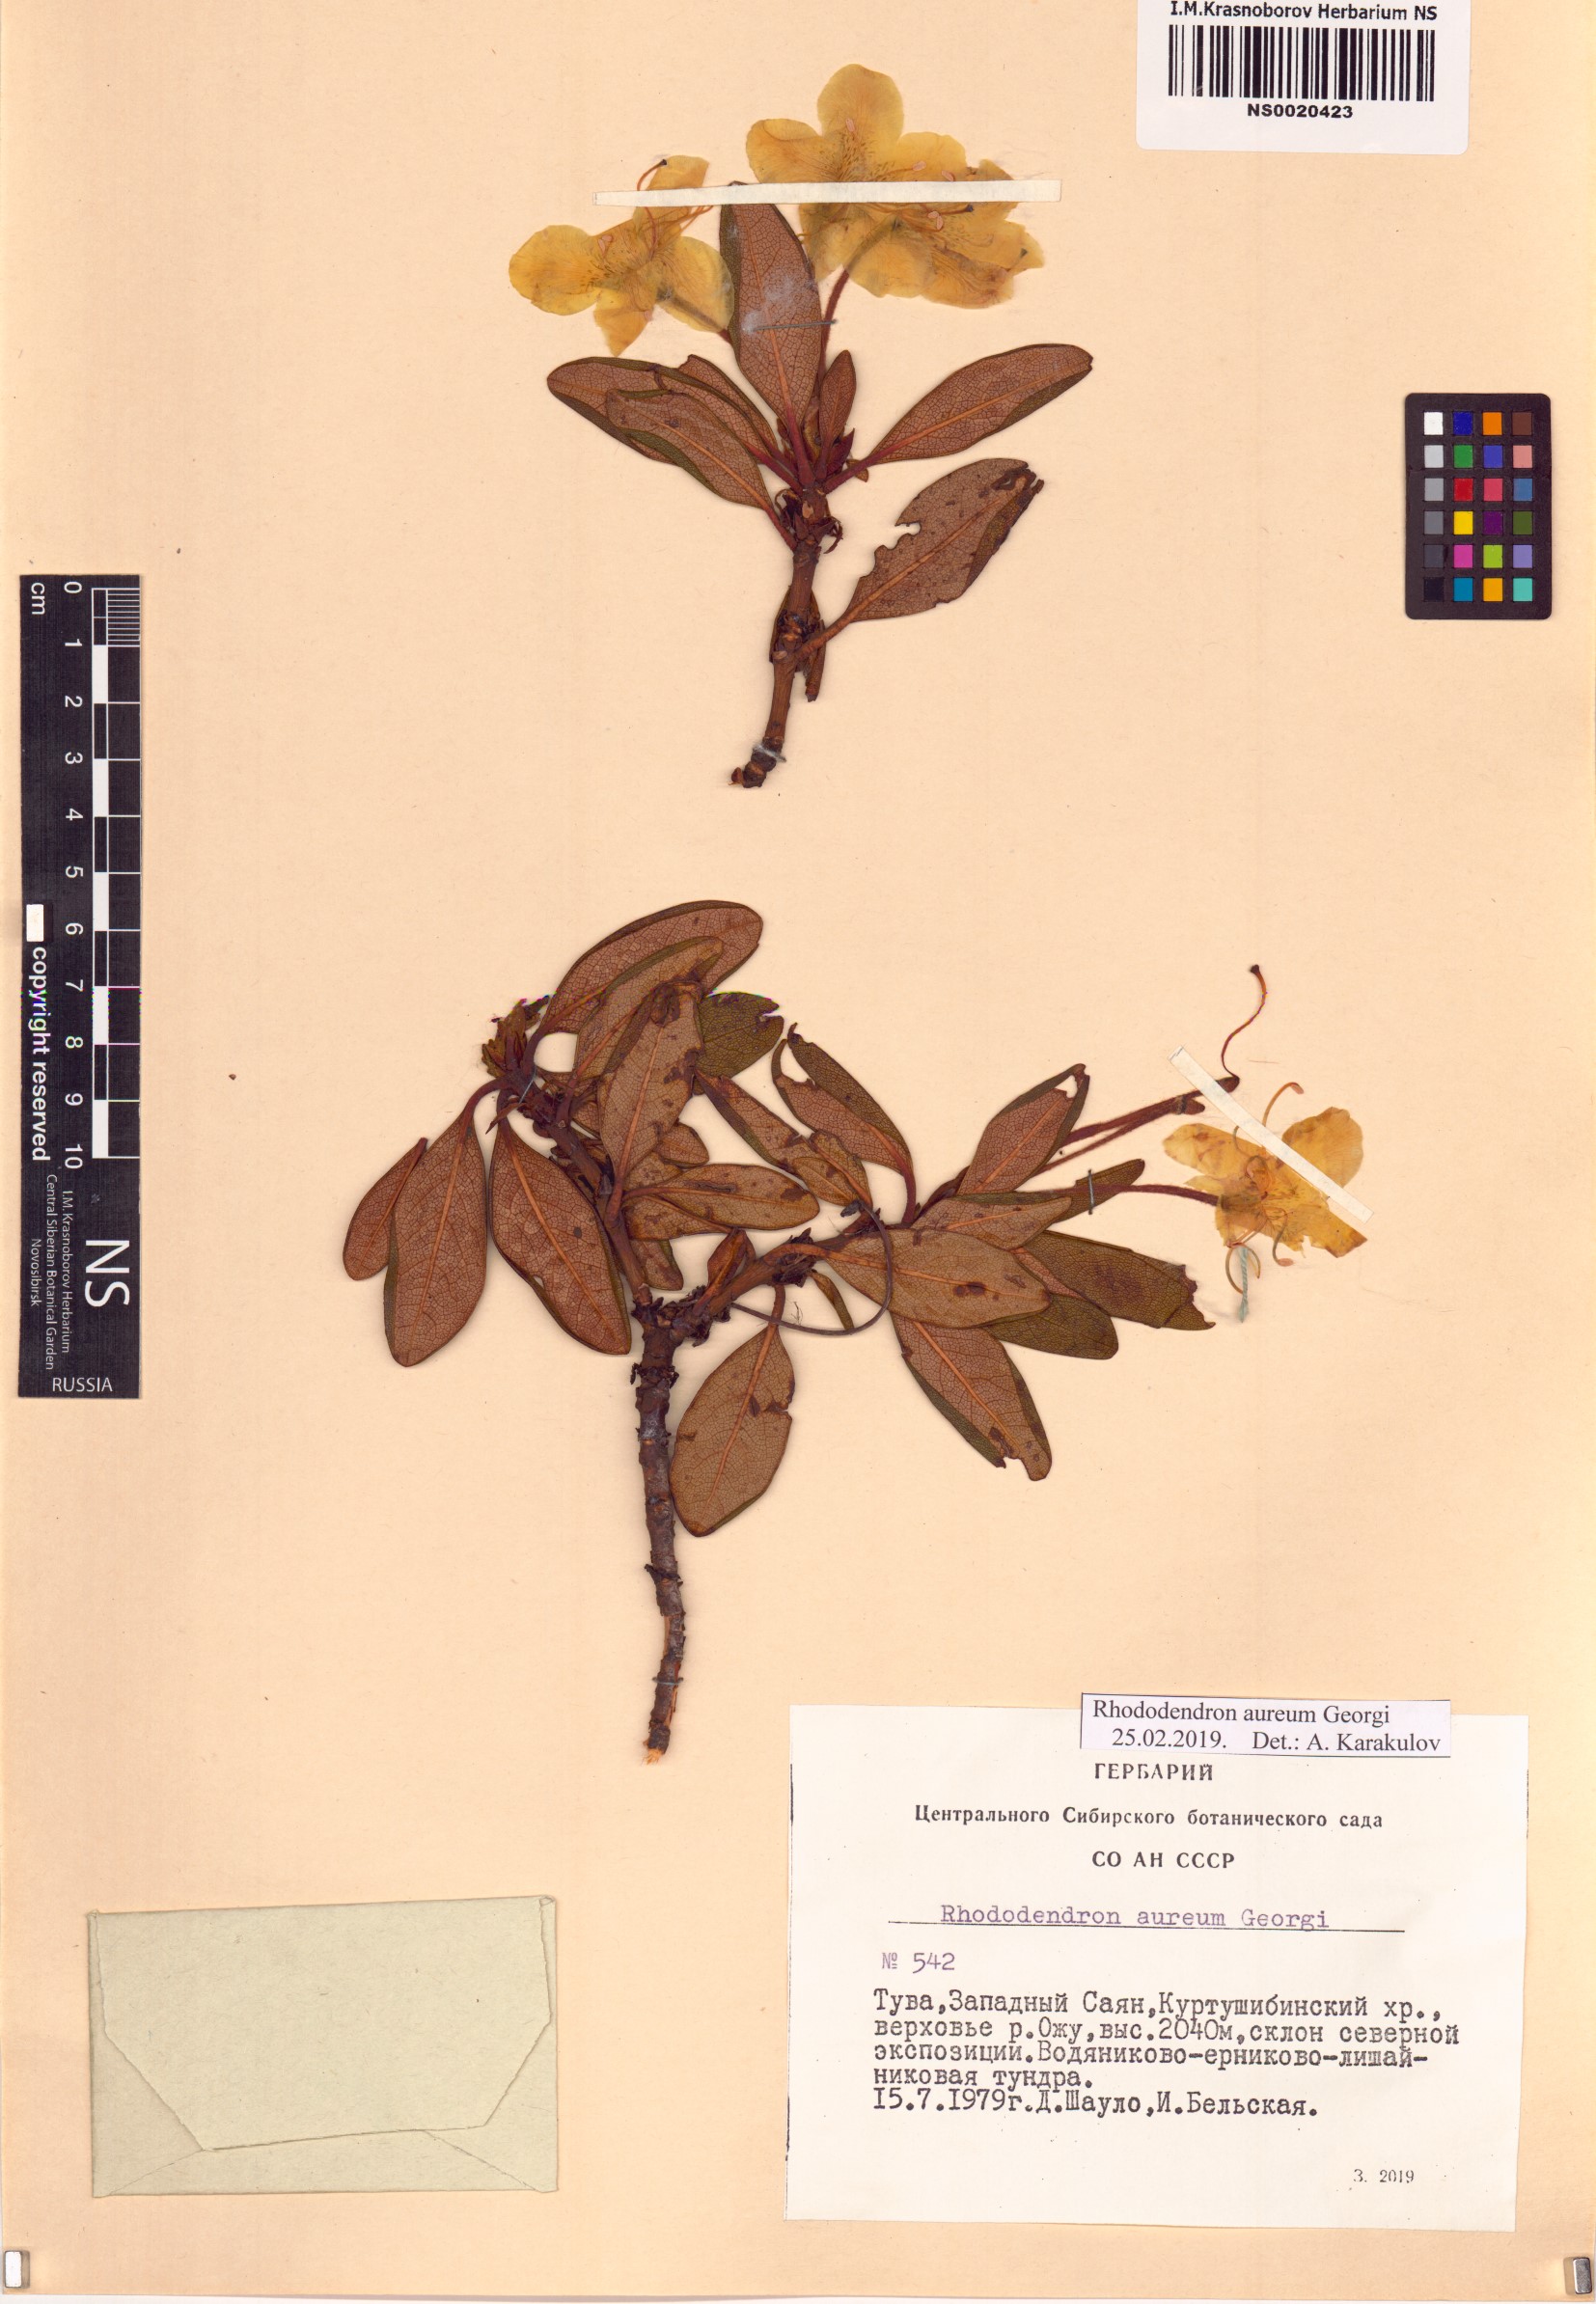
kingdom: Plantae
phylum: Tracheophyta
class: Magnoliopsida
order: Ericales
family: Ericaceae
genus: Rhododendron
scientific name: Rhododendron aureum
